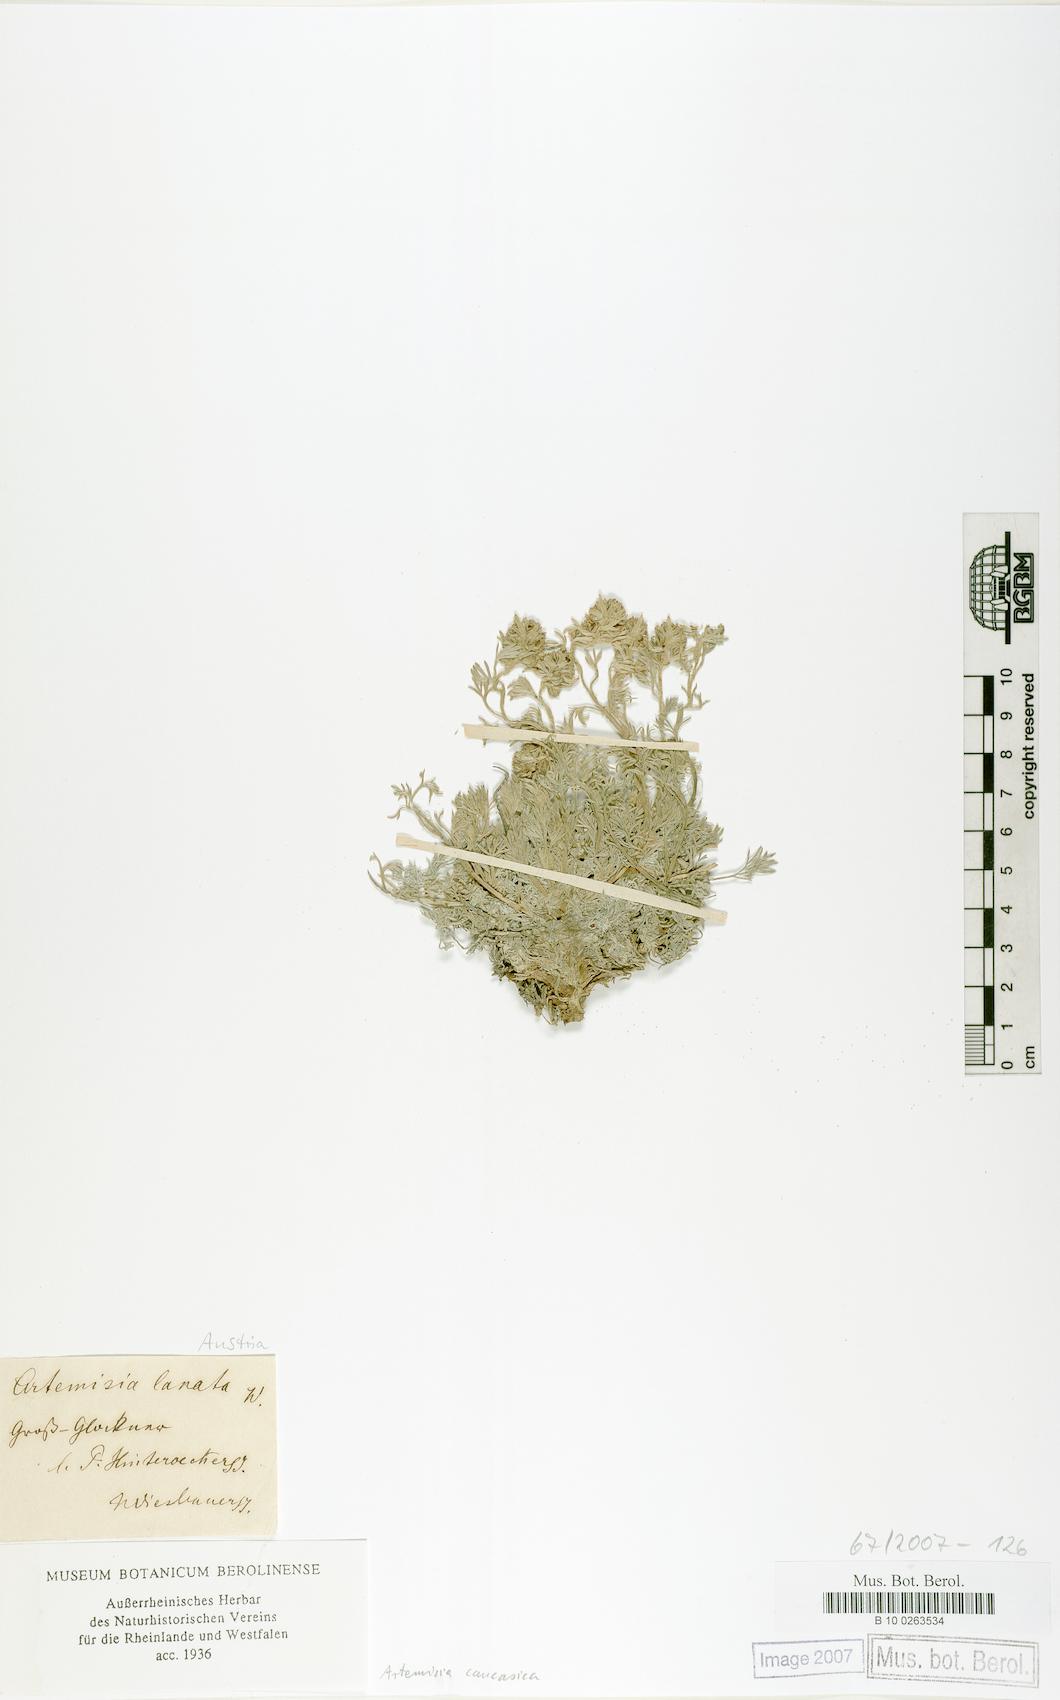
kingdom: Plantae
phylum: Tracheophyta
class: Magnoliopsida
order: Asterales
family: Asteraceae
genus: Artemisia
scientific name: Artemisia alpina
